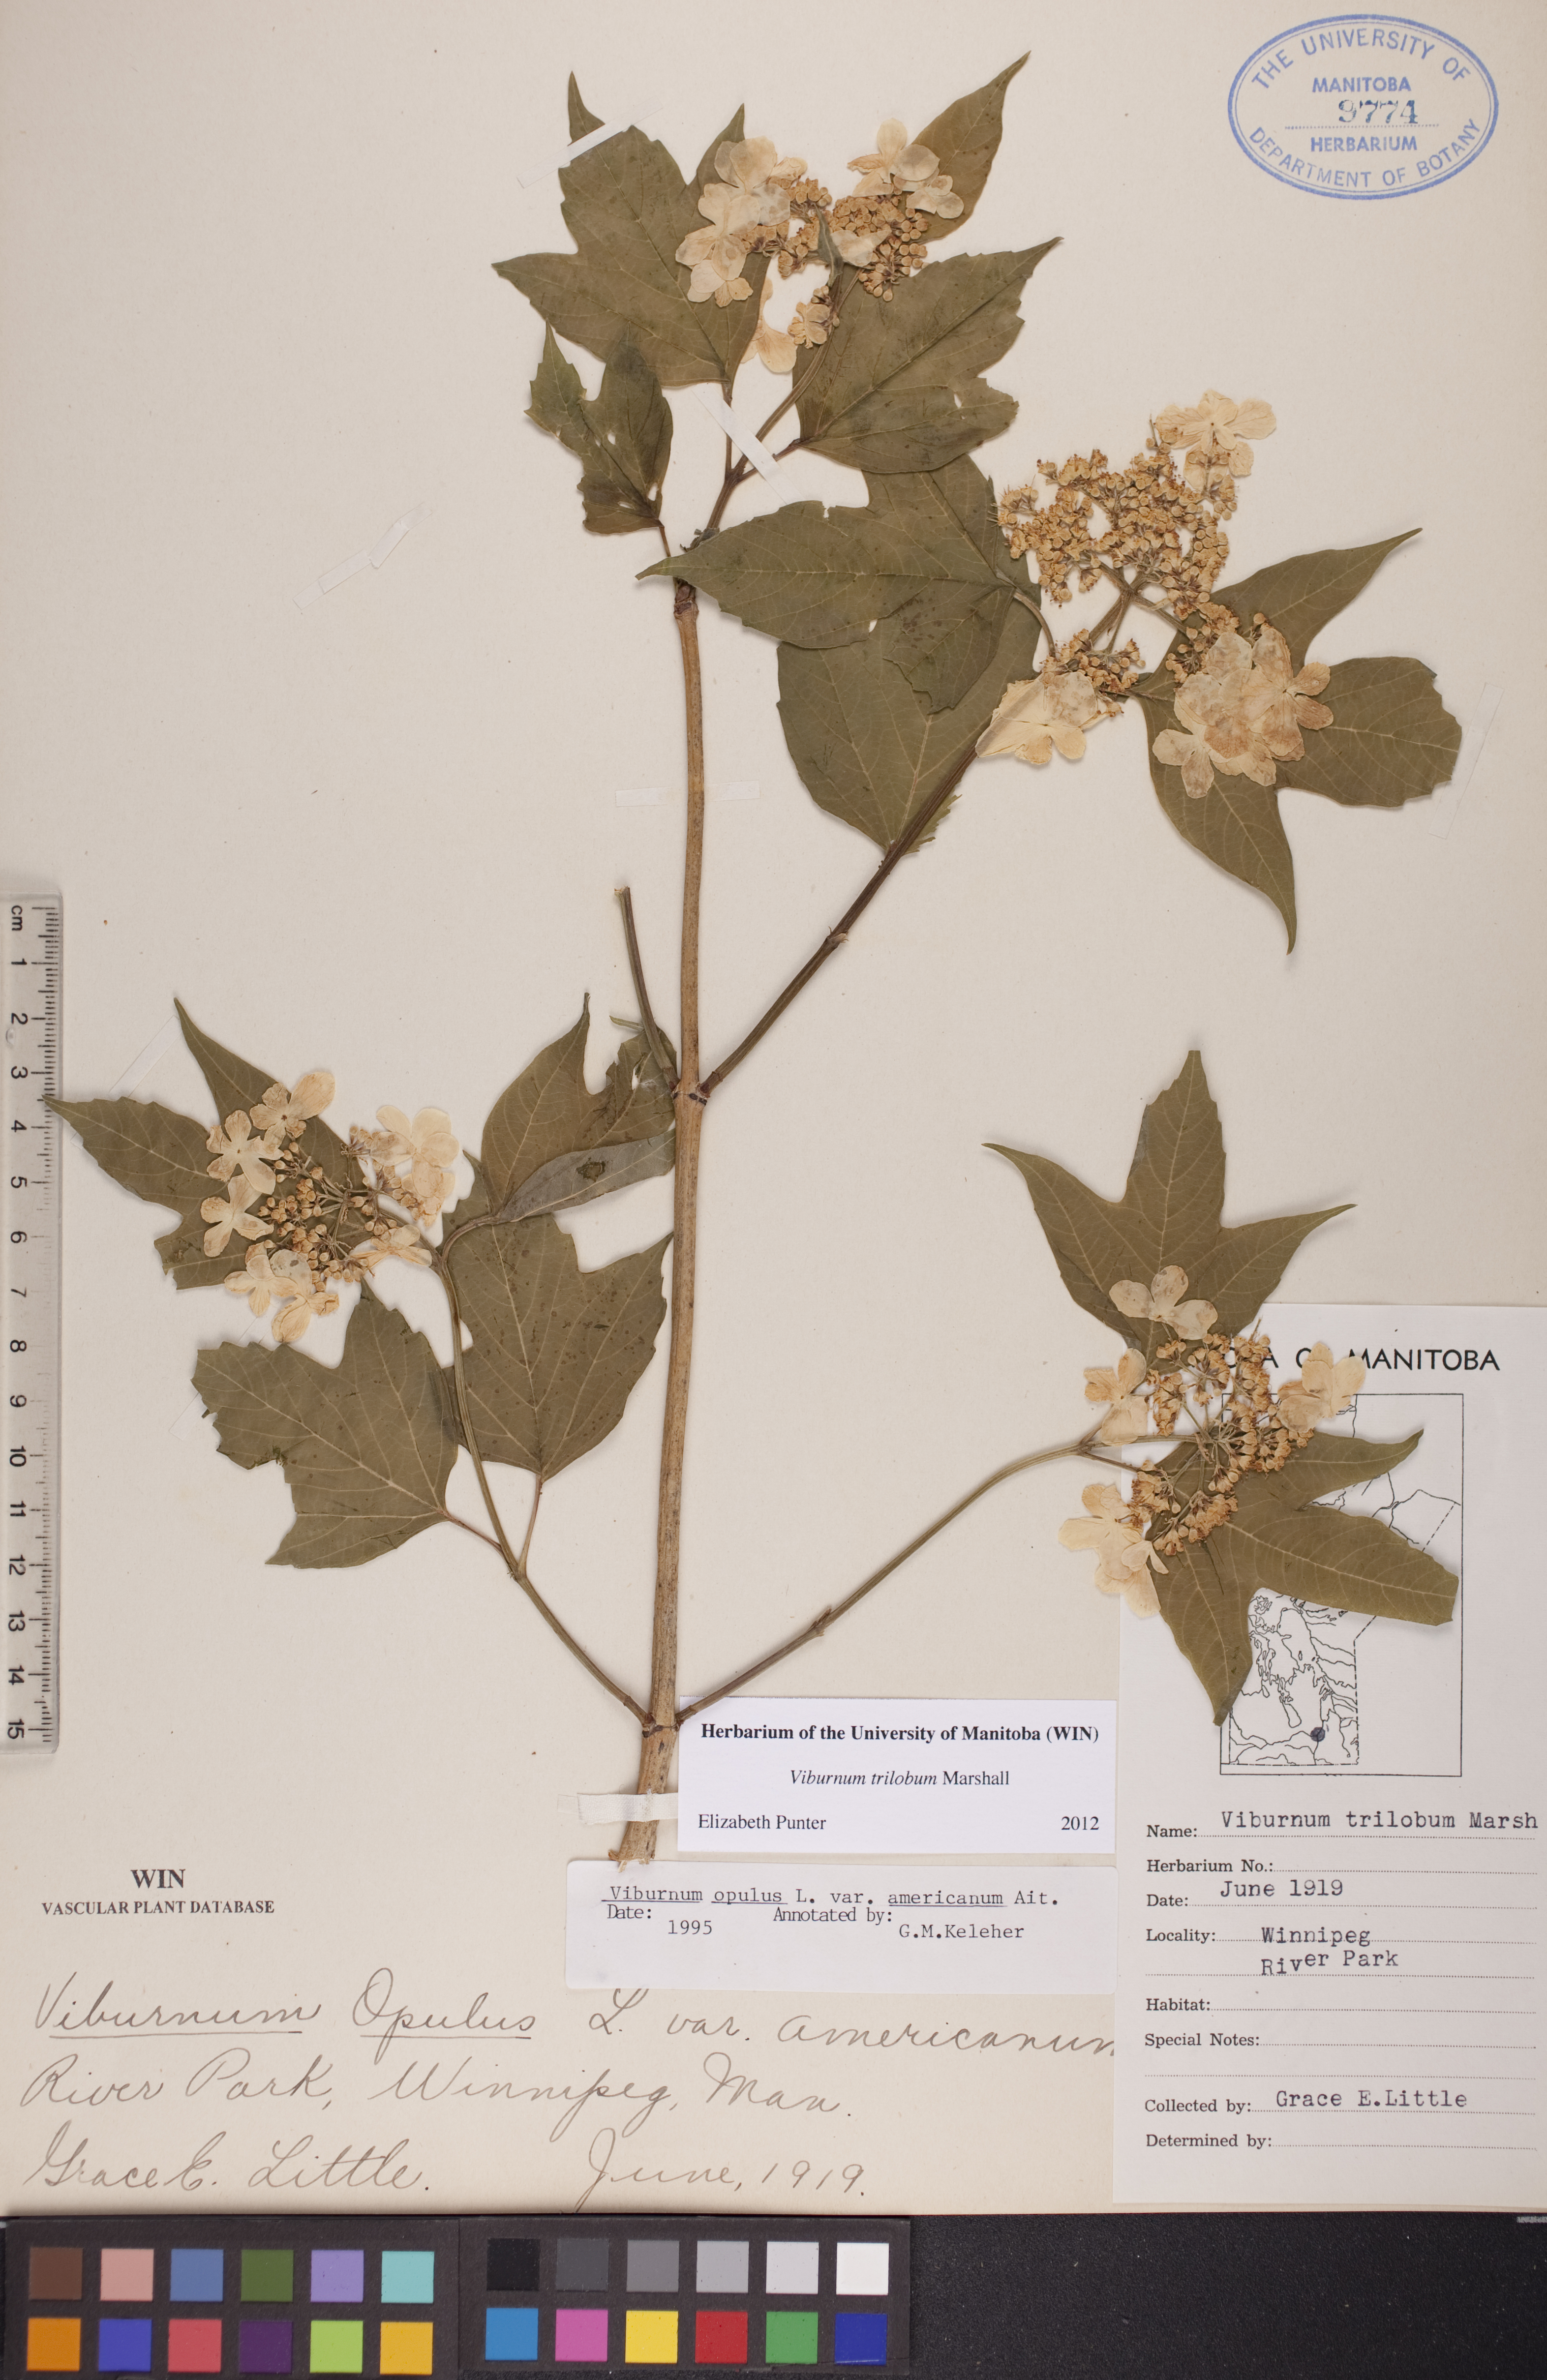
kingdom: Plantae
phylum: Tracheophyta
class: Magnoliopsida
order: Dipsacales
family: Viburnaceae
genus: Viburnum
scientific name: Viburnum trilobum
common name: American cranberrybush
